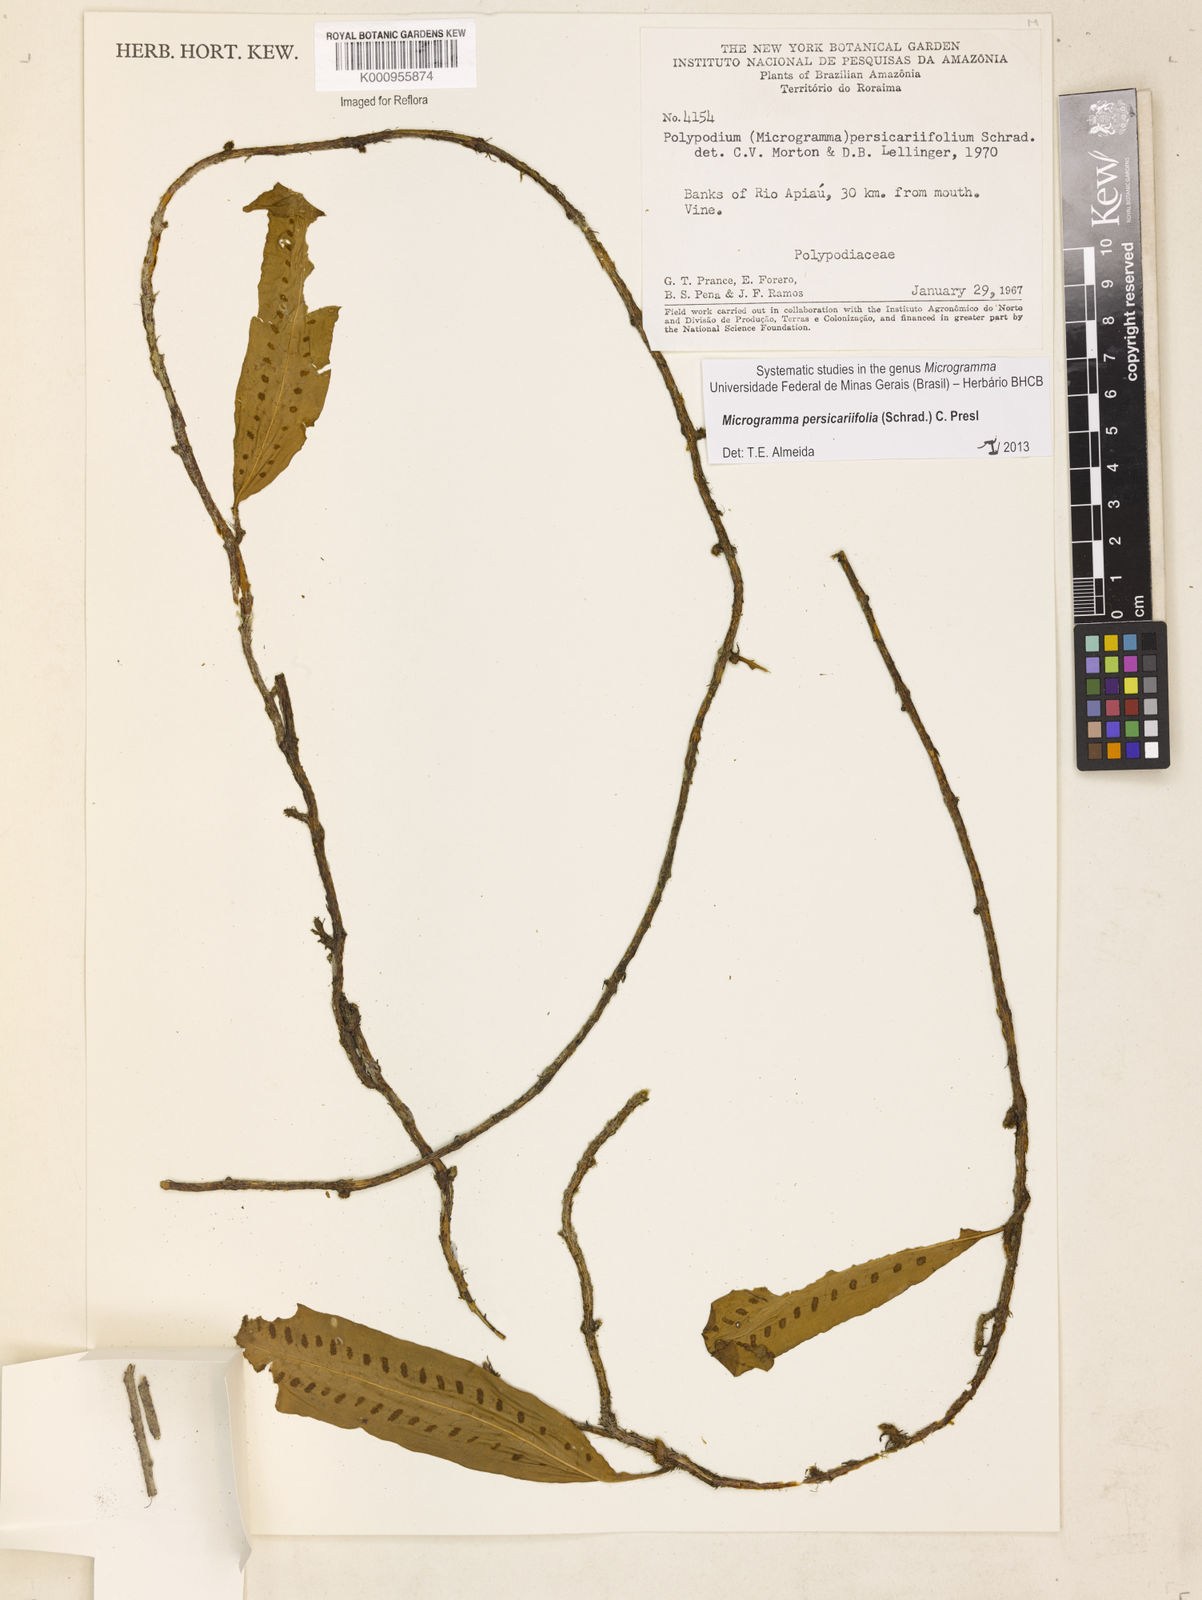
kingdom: Plantae
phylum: Tracheophyta
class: Polypodiopsida
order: Polypodiales
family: Polypodiaceae
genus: Microgramma
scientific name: Microgramma persicariifolia
